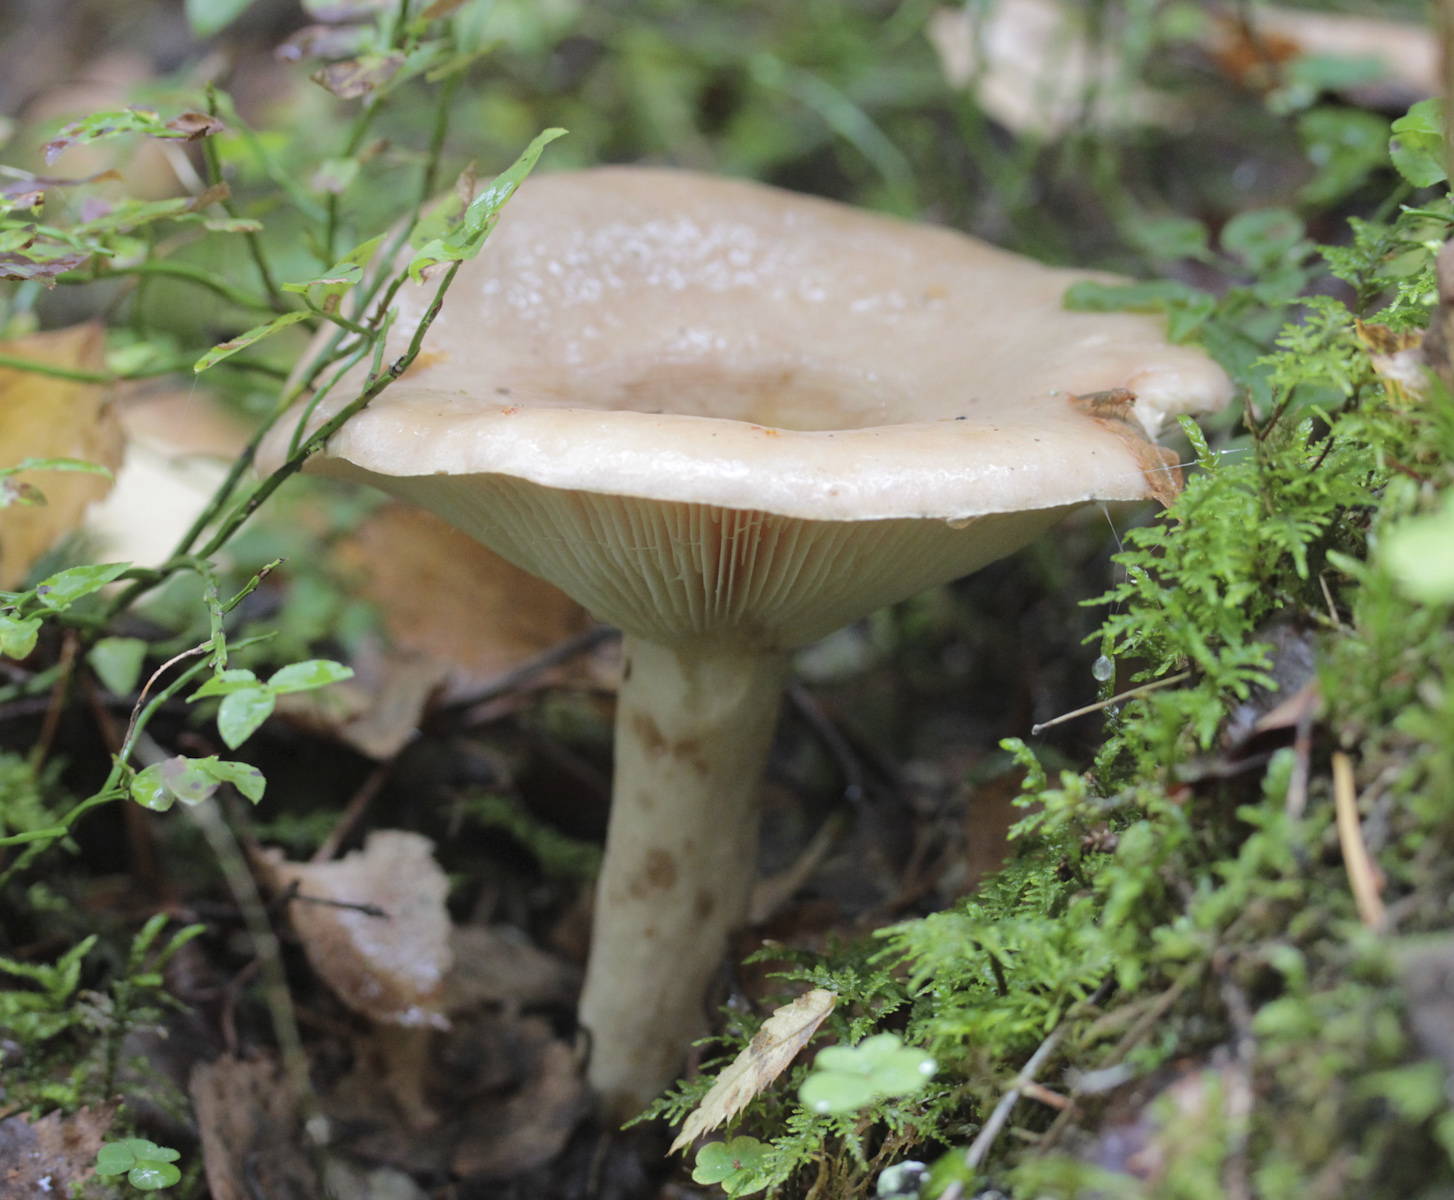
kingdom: Fungi
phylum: Basidiomycota
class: Agaricomycetes
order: Russulales
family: Russulaceae
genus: Lactarius
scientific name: Lactarius utilis
